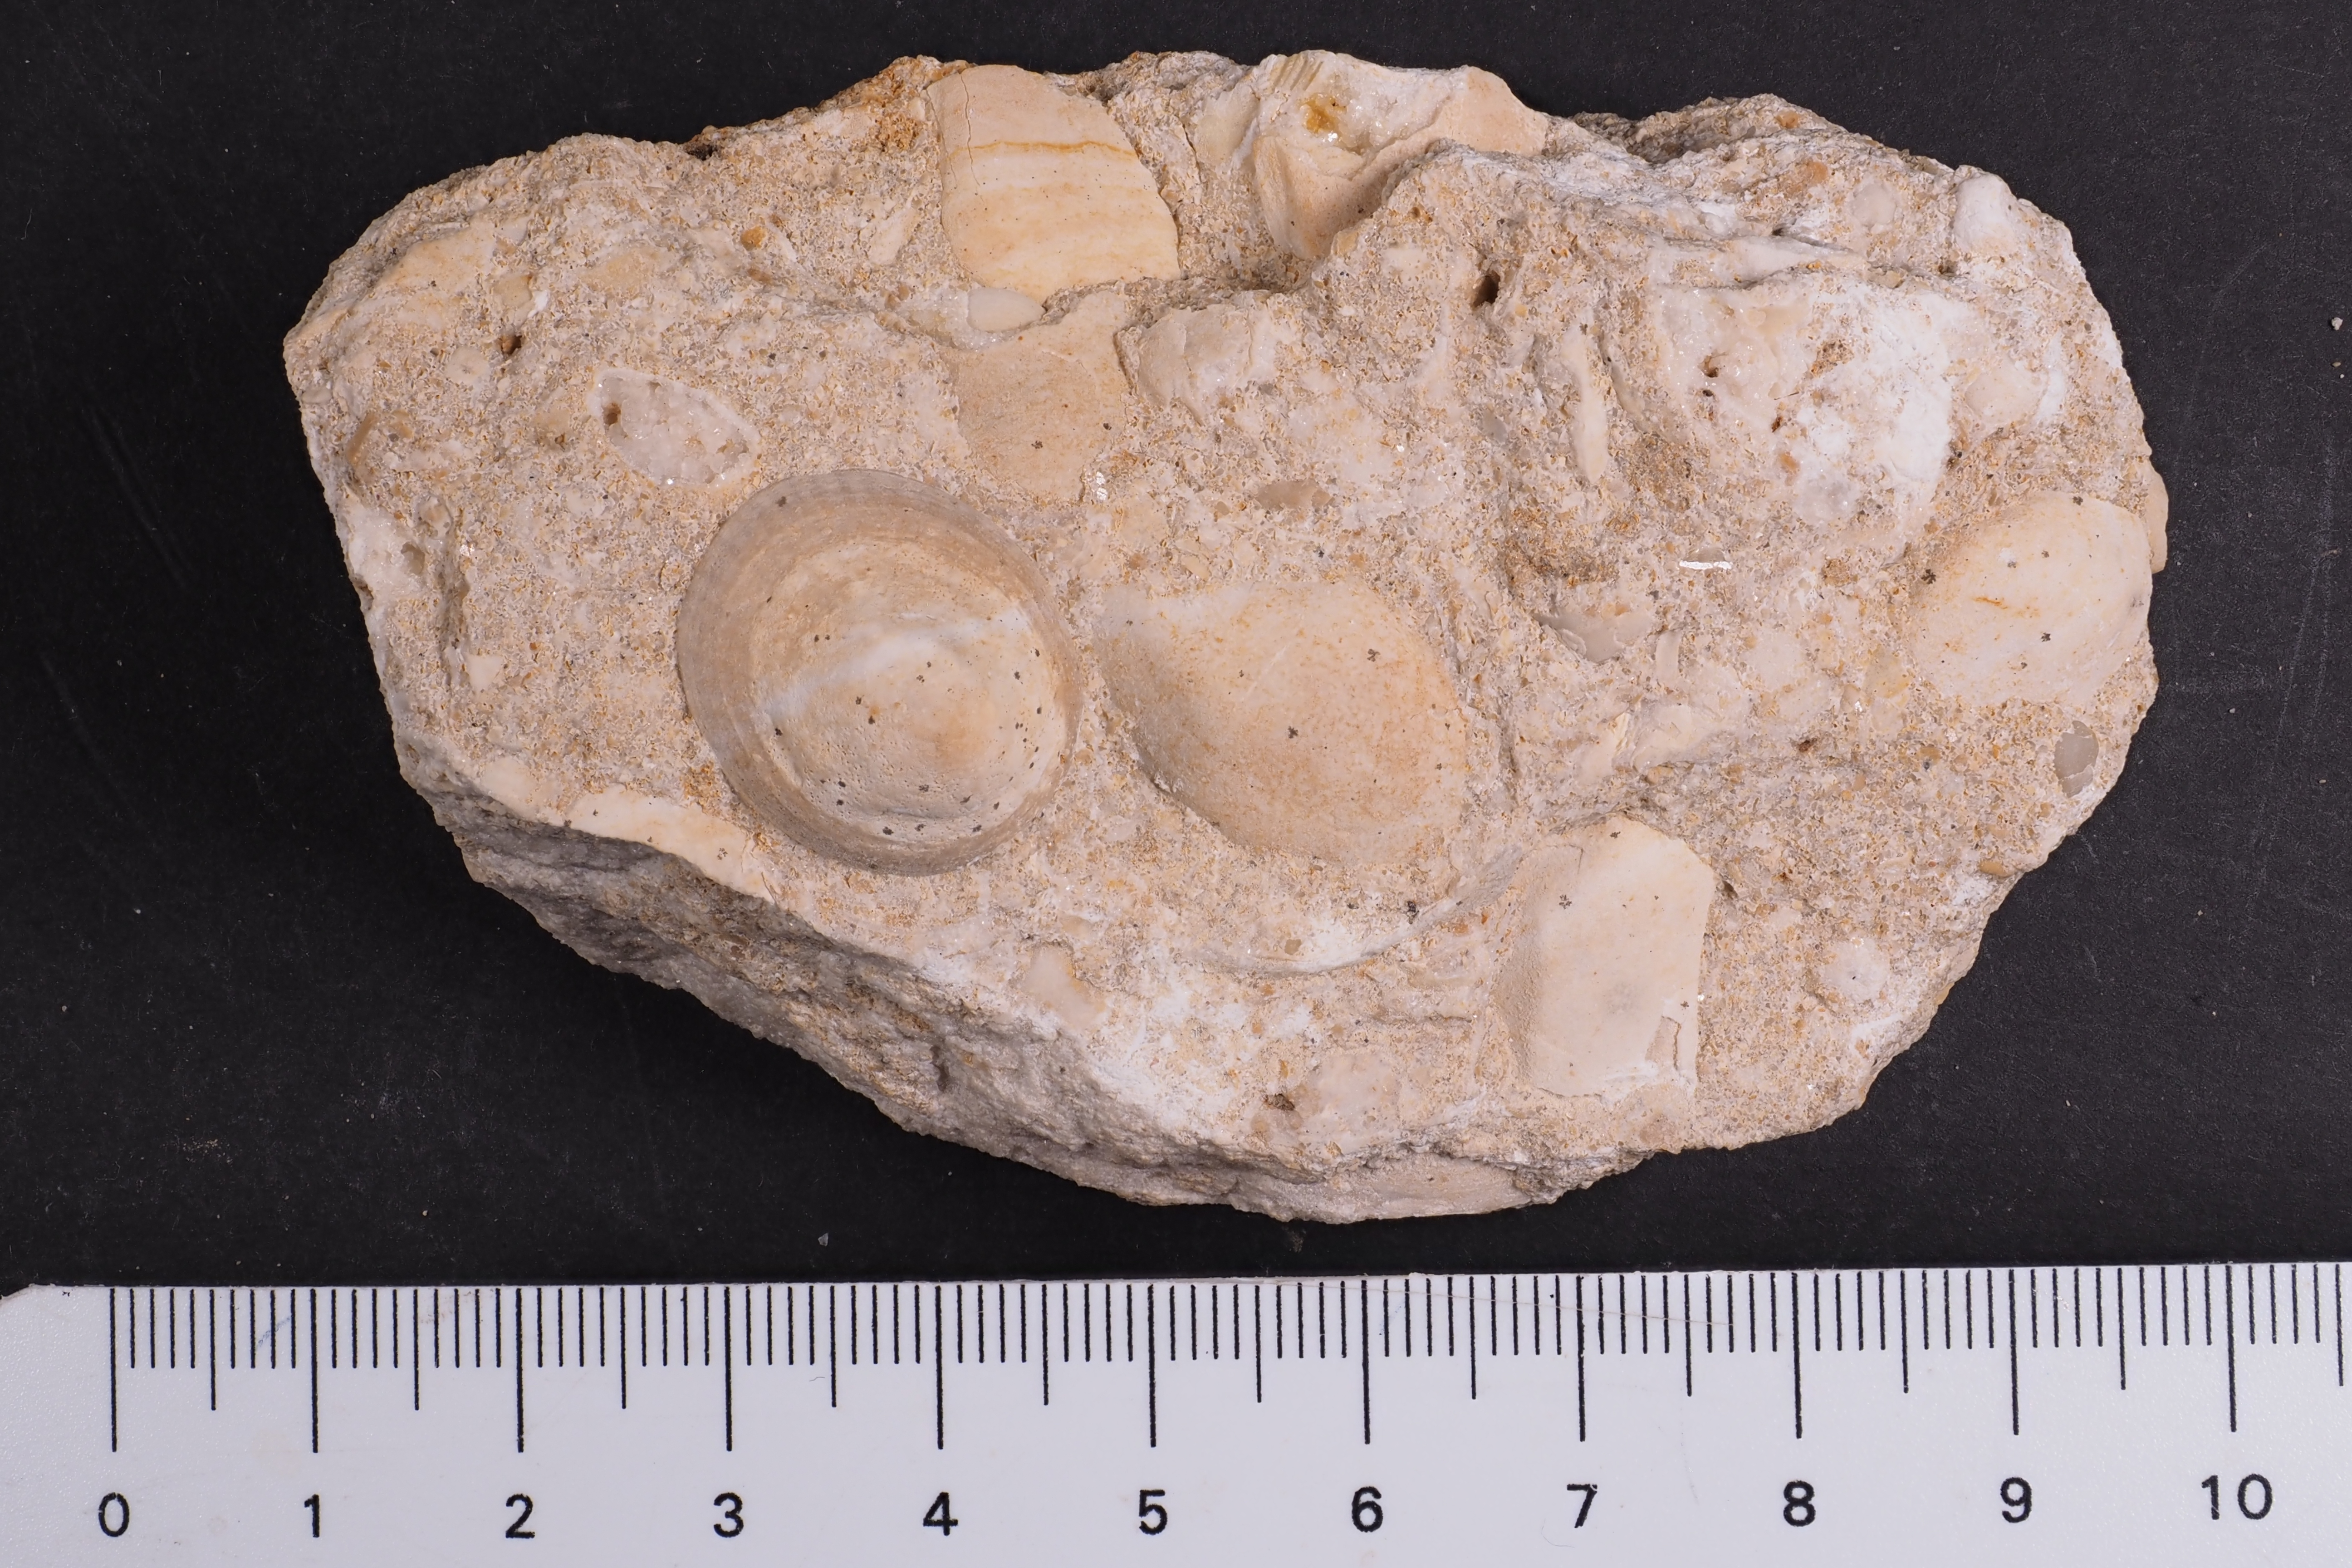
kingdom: Animalia
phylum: Mollusca
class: Gastropoda
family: Acmaeadae
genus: Scurriopsis
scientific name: Scurriopsis Patella hennocquii
